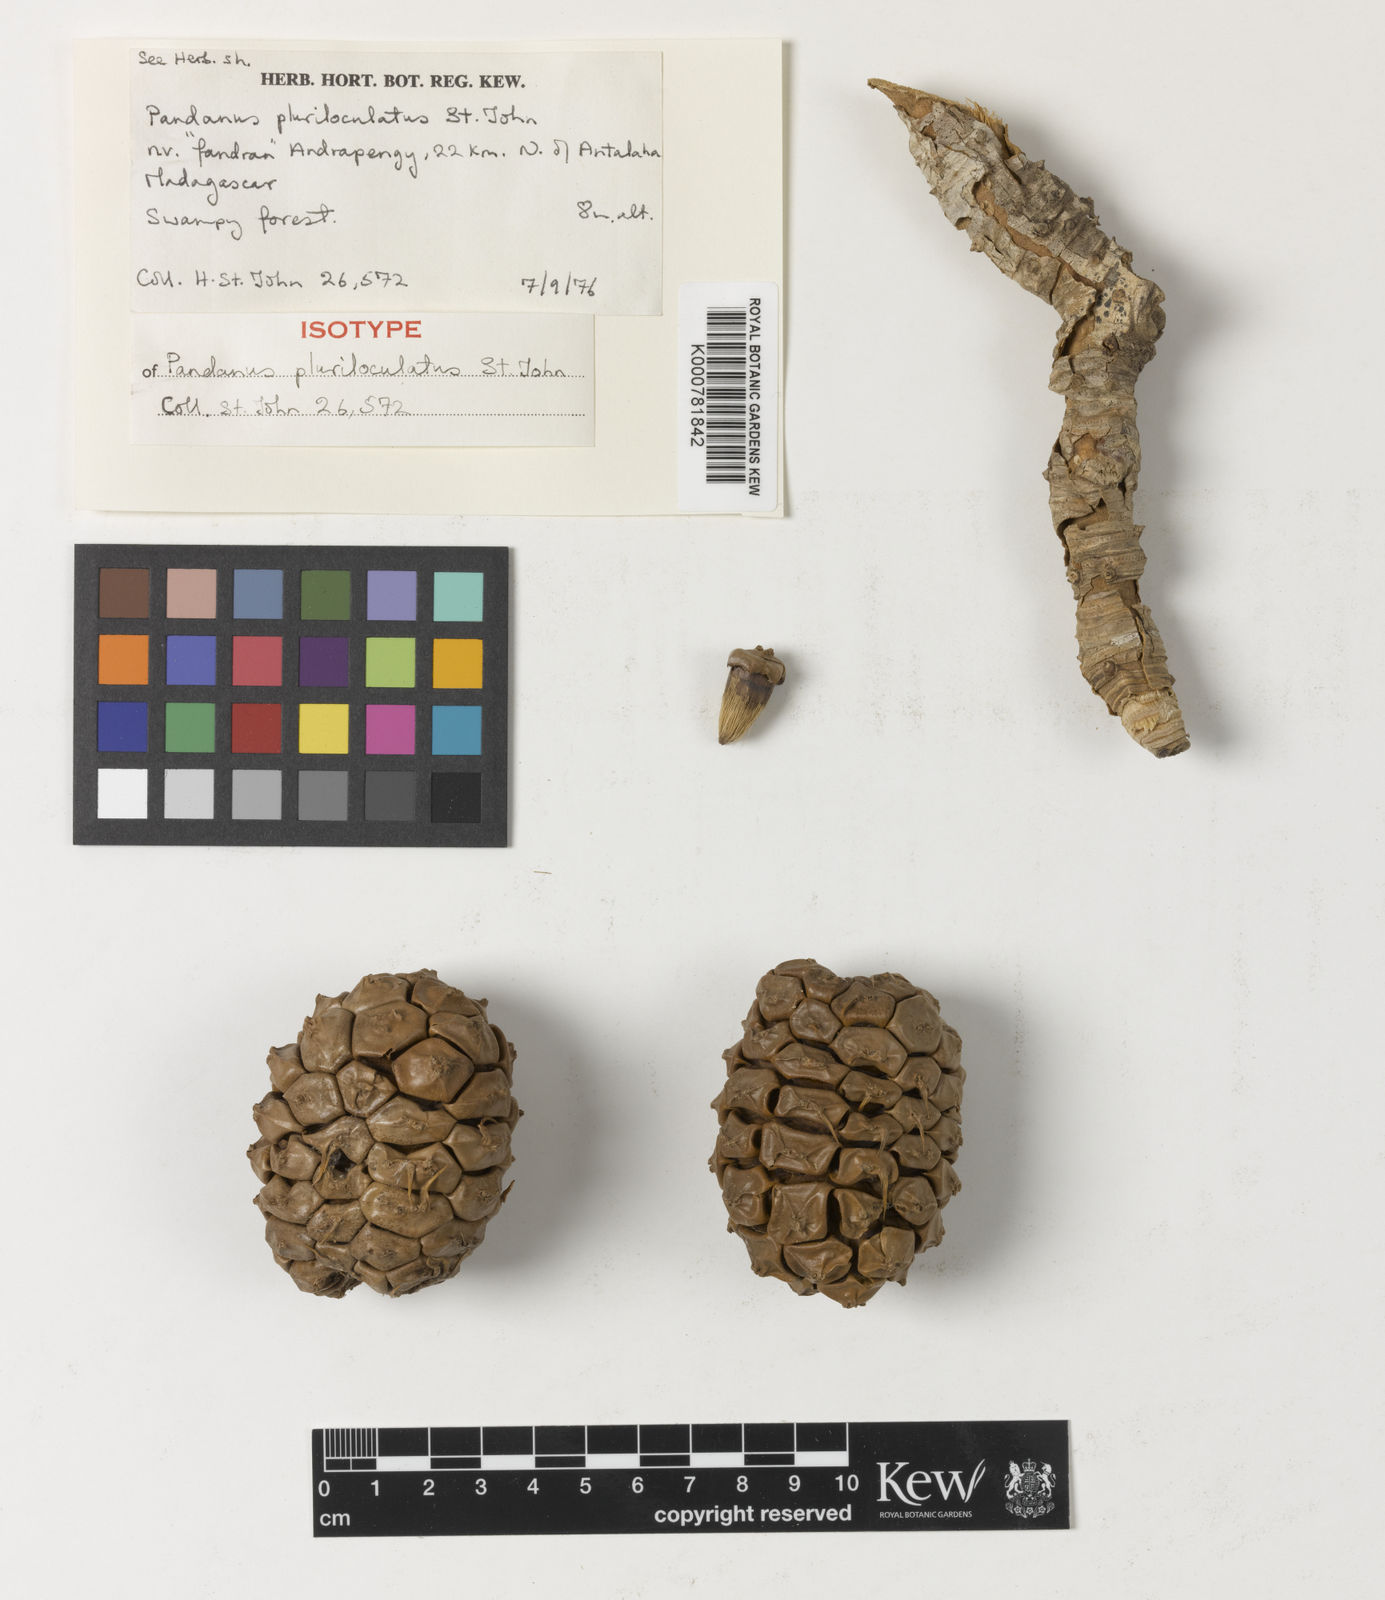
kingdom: Plantae
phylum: Tracheophyta
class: Liliopsida
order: Pandanales
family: Pandanaceae
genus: Pandanus
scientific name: Pandanus pluriloculatus
